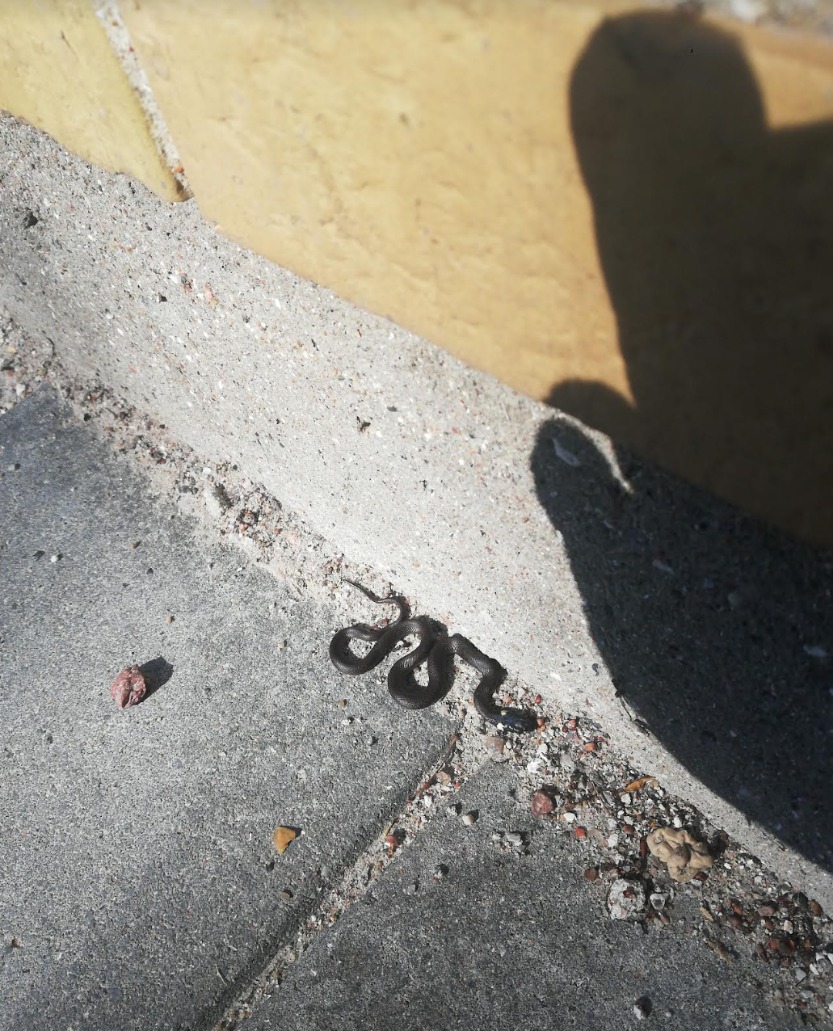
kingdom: Animalia
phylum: Chordata
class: Squamata
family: Colubridae
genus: Natrix
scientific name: Natrix natrix
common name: Snog
